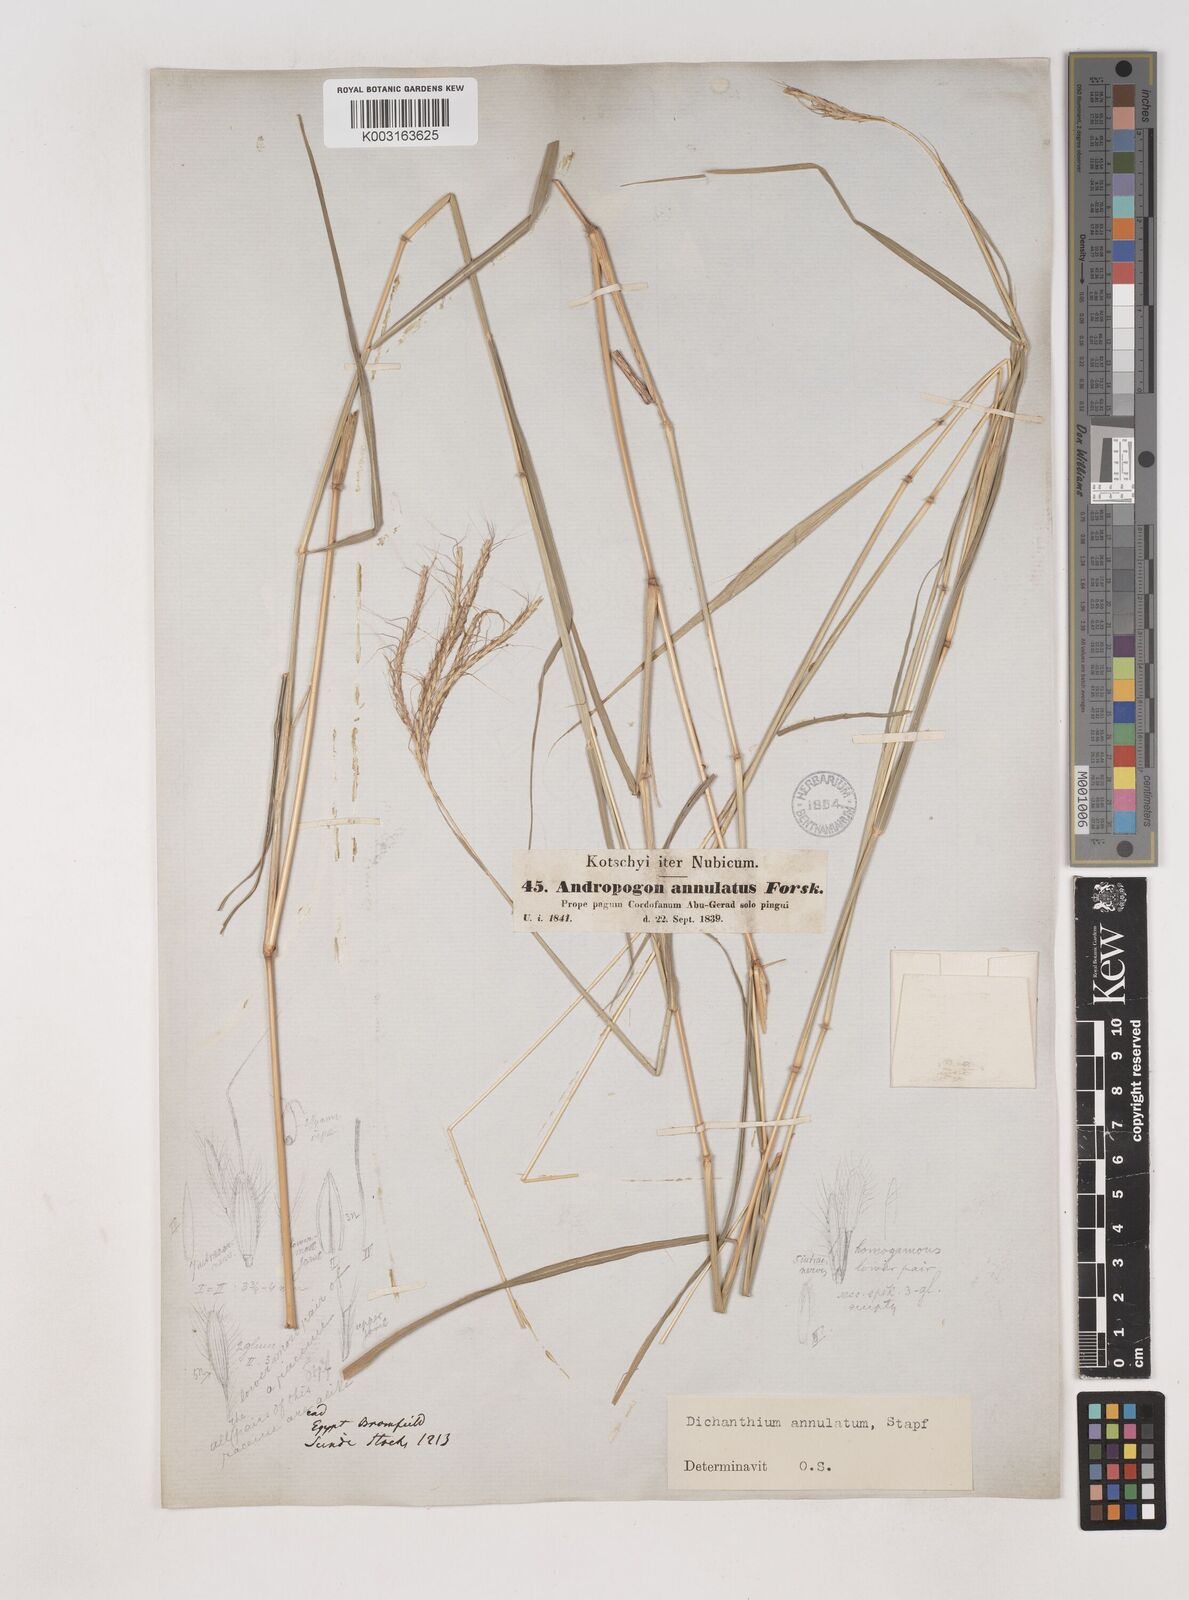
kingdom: Plantae
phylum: Tracheophyta
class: Liliopsida
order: Poales
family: Poaceae
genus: Dichanthium
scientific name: Dichanthium annulatum
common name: Kleberg's bluestem
